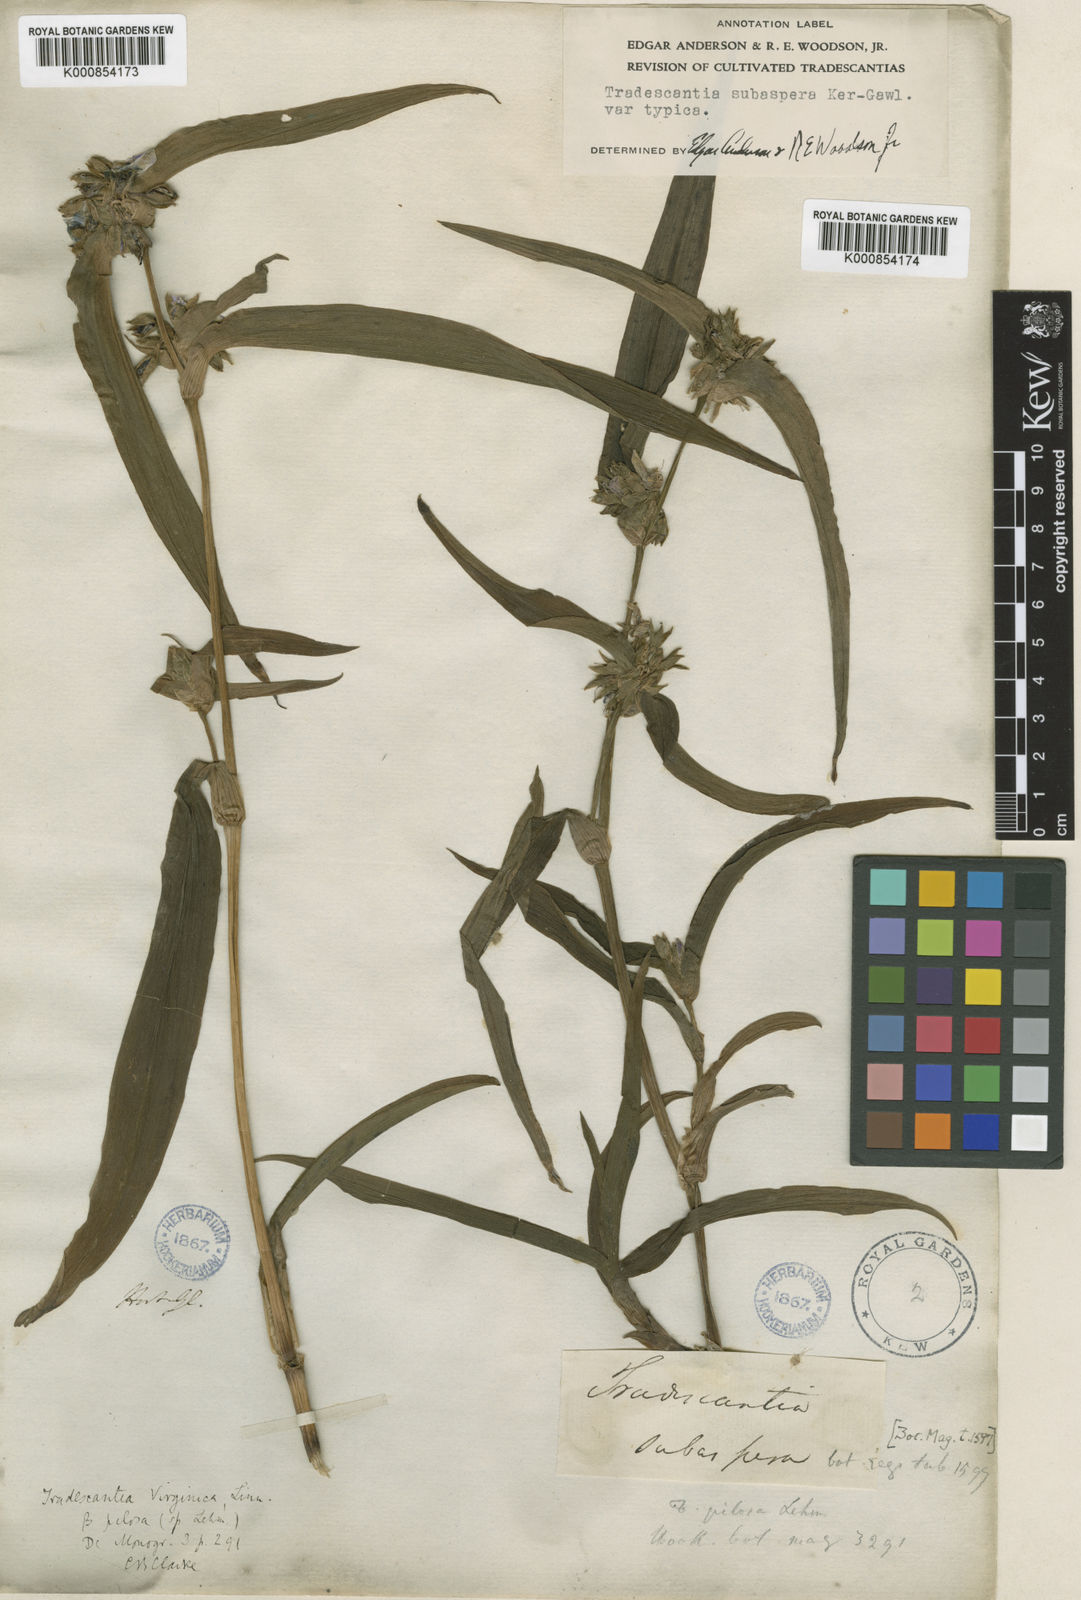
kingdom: Plantae
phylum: Tracheophyta
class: Liliopsida
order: Commelinales
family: Commelinaceae
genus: Tradescantia
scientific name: Tradescantia subaspera
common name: Wide-leaf spiderwort
